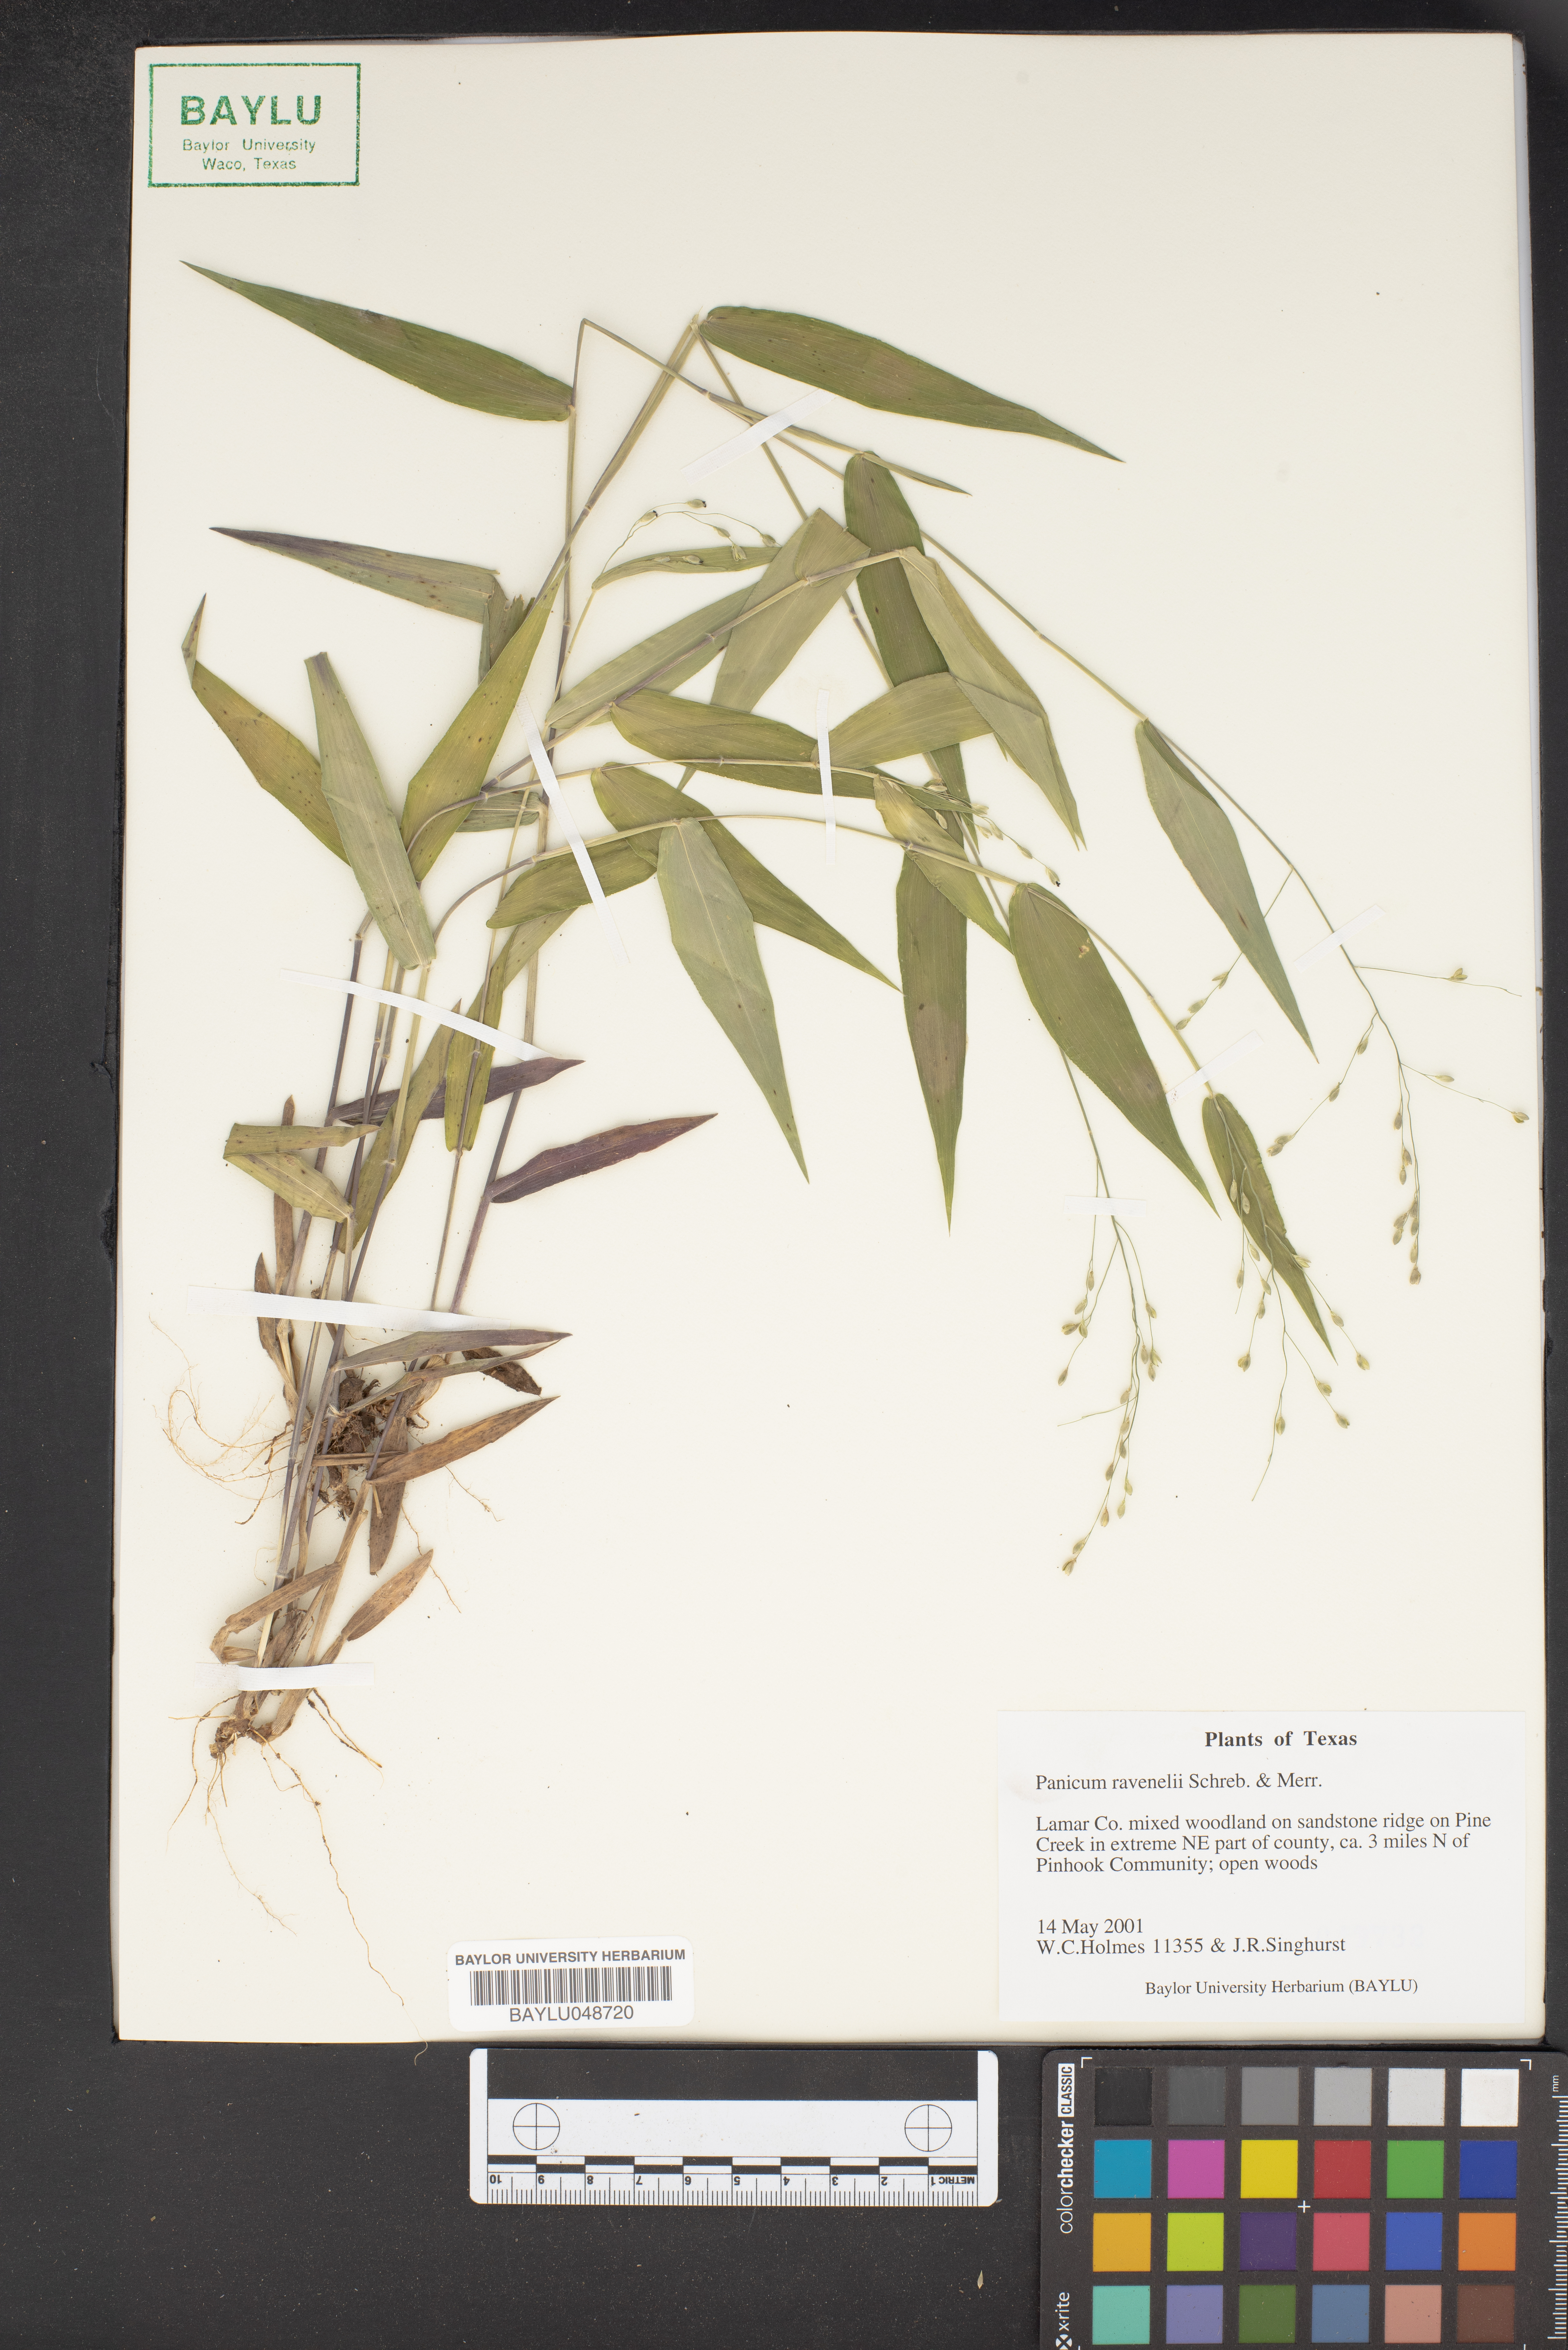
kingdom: Plantae
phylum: Tracheophyta
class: Liliopsida
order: Poales
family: Poaceae
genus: Dichanthelium
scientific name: Dichanthelium ravenelii
